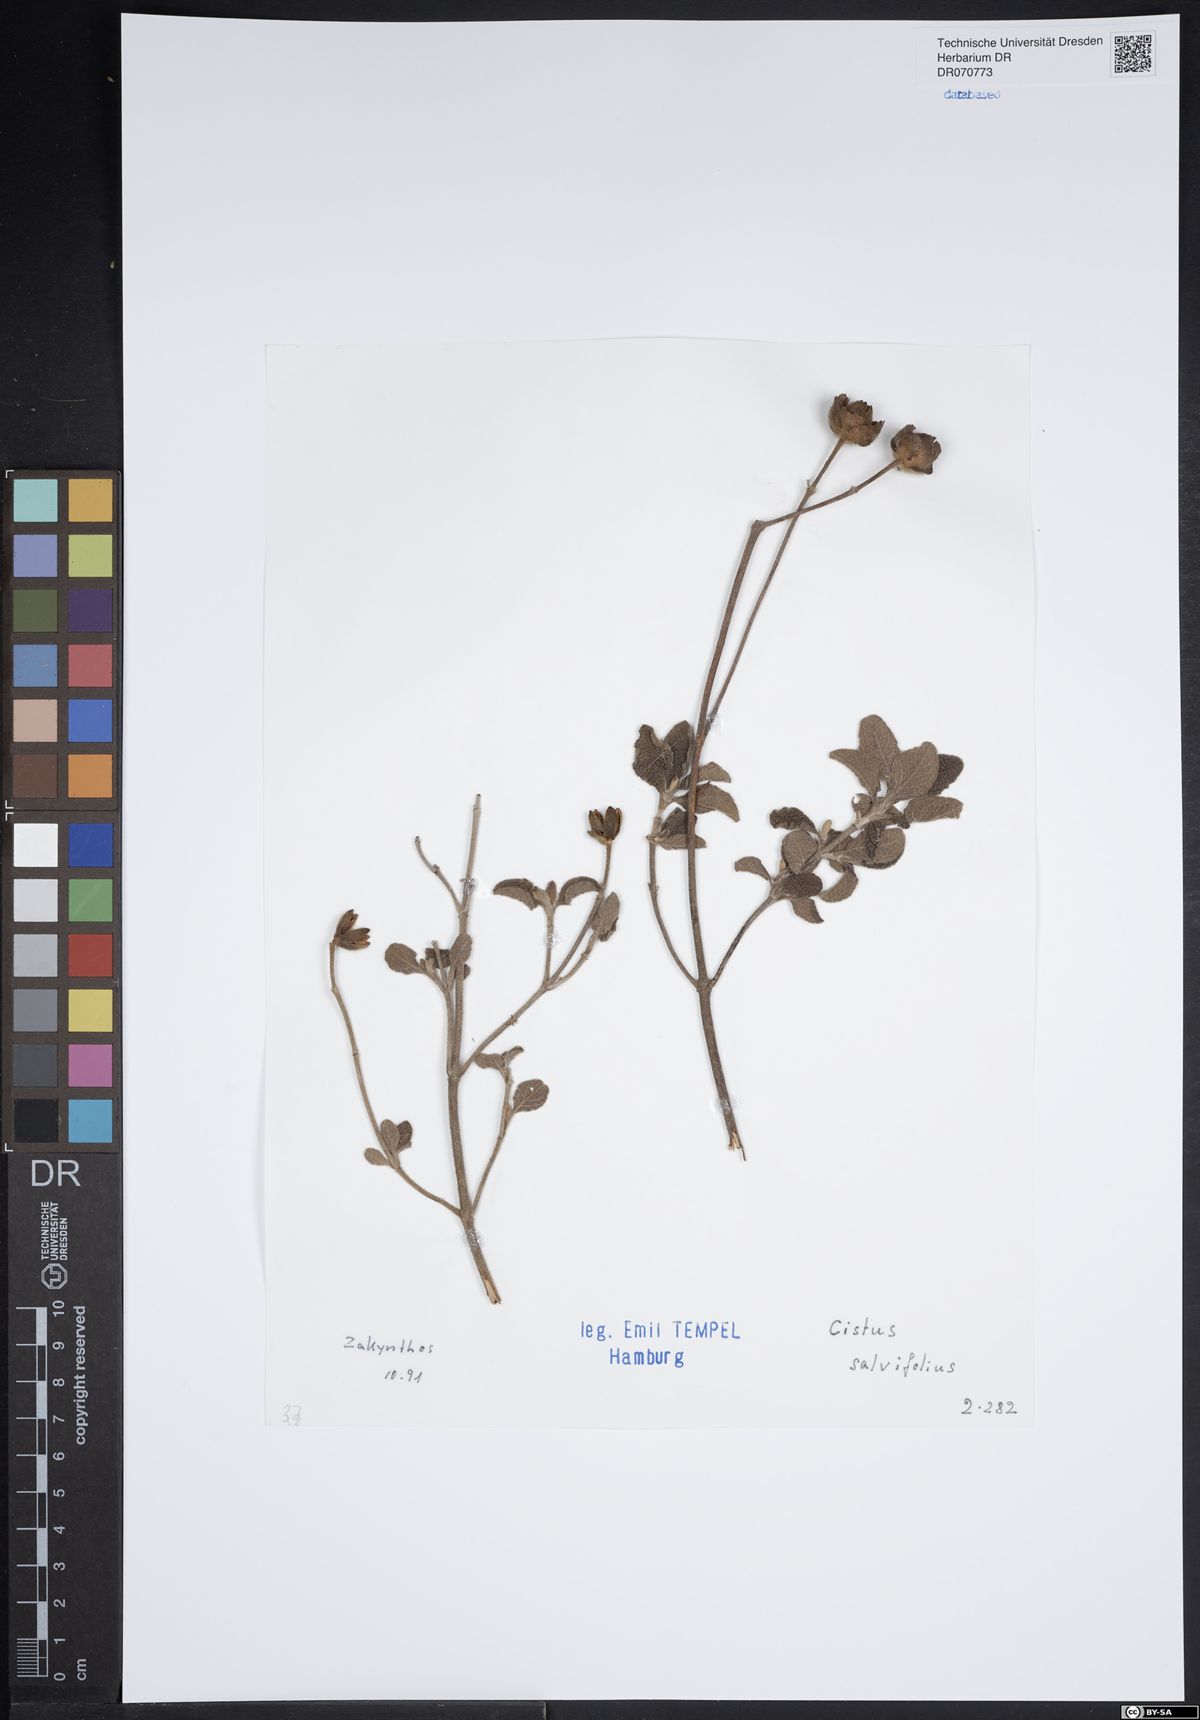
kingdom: Plantae
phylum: Tracheophyta
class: Magnoliopsida
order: Malvales
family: Cistaceae
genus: Cistus
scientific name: Cistus salviifolius
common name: Salvia cistus
